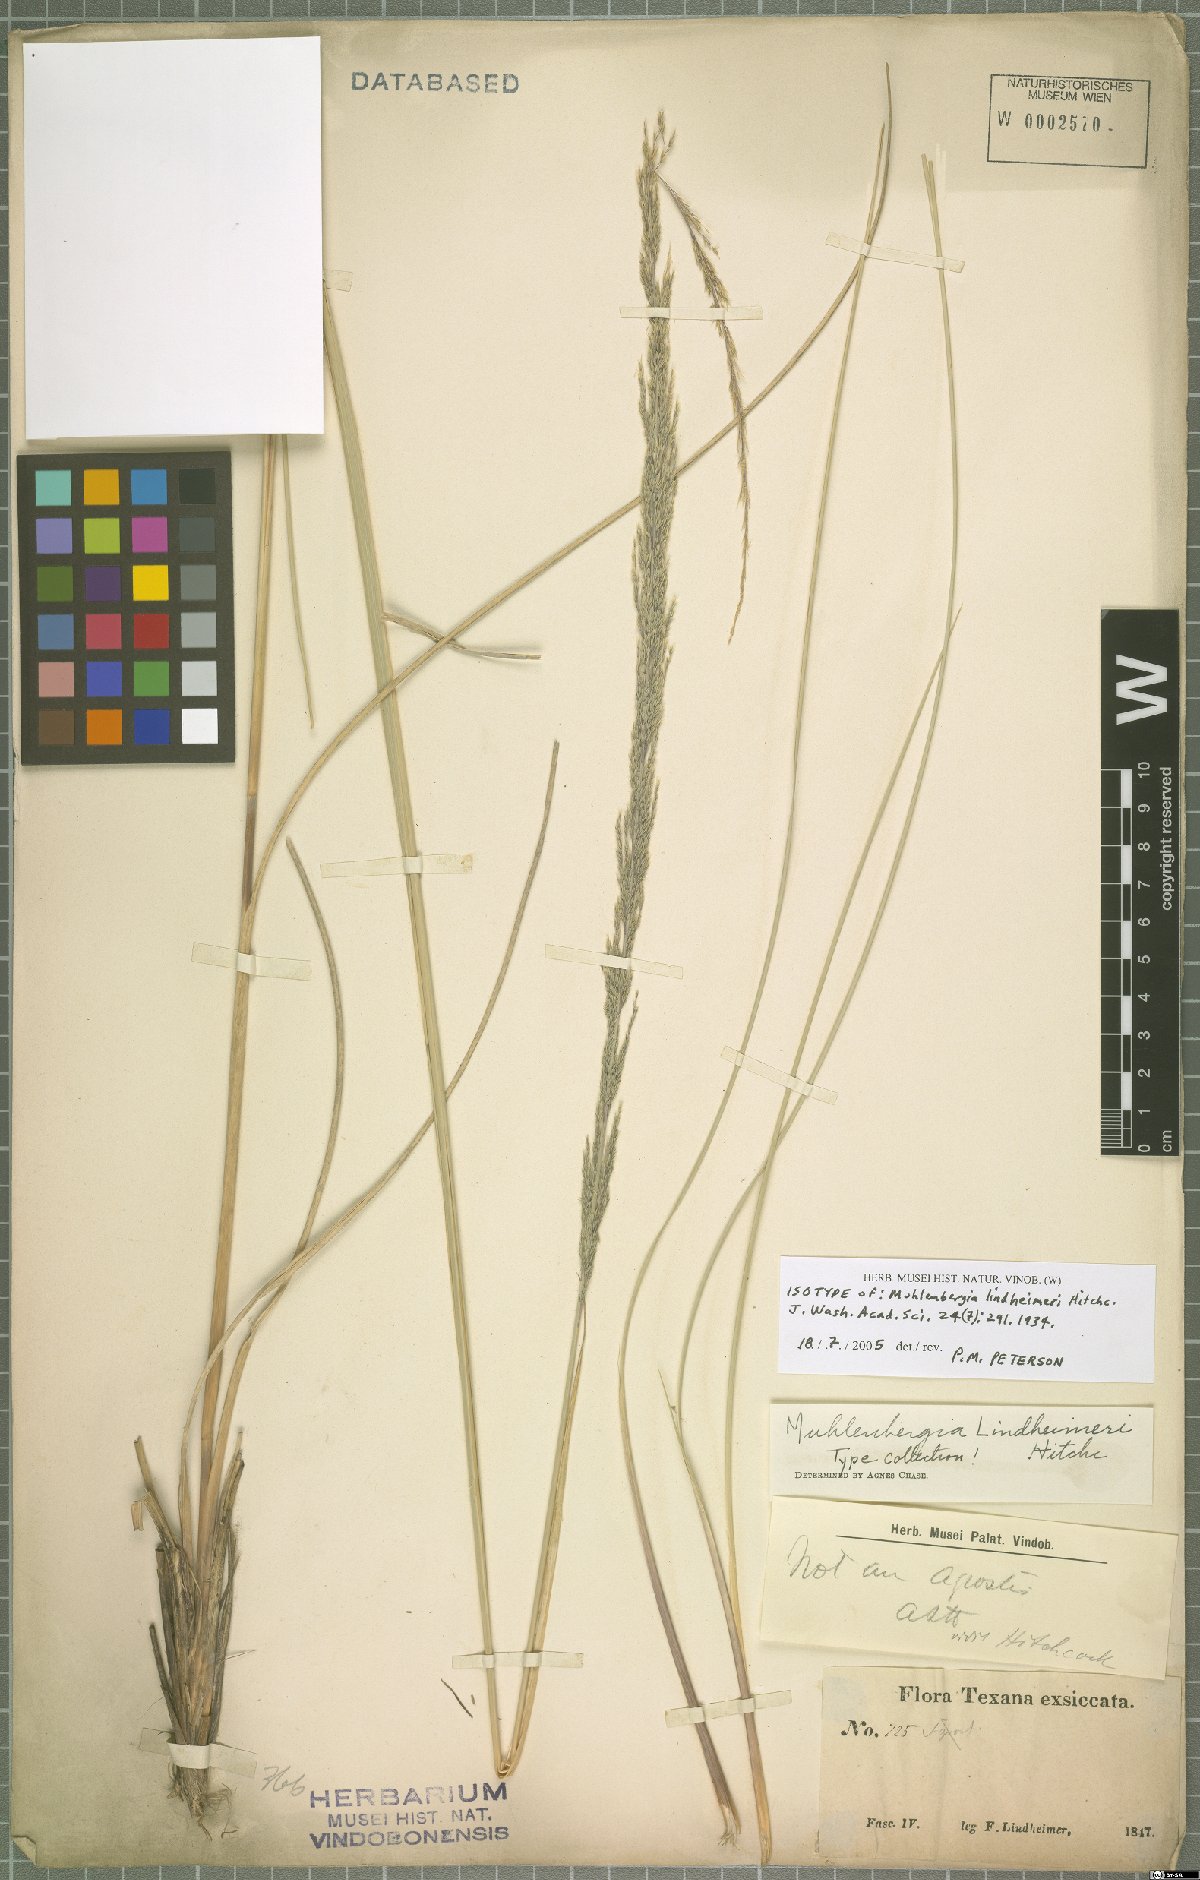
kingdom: Plantae
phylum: Tracheophyta
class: Liliopsida
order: Poales
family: Poaceae
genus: Muhlenbergia
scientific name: Muhlenbergia lindheimeri
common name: Lindheimer's muhly
